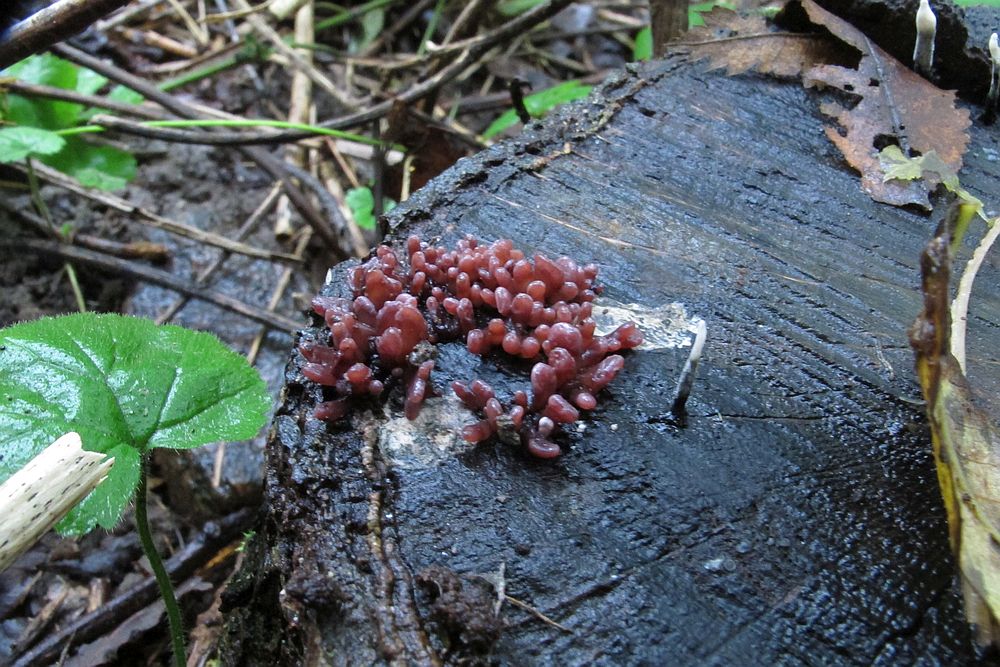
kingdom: Fungi
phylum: Ascomycota
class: Leotiomycetes
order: Helotiales
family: Gelatinodiscaceae
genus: Ascocoryne
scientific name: Ascocoryne sarcoides
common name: rødlilla sejskive
